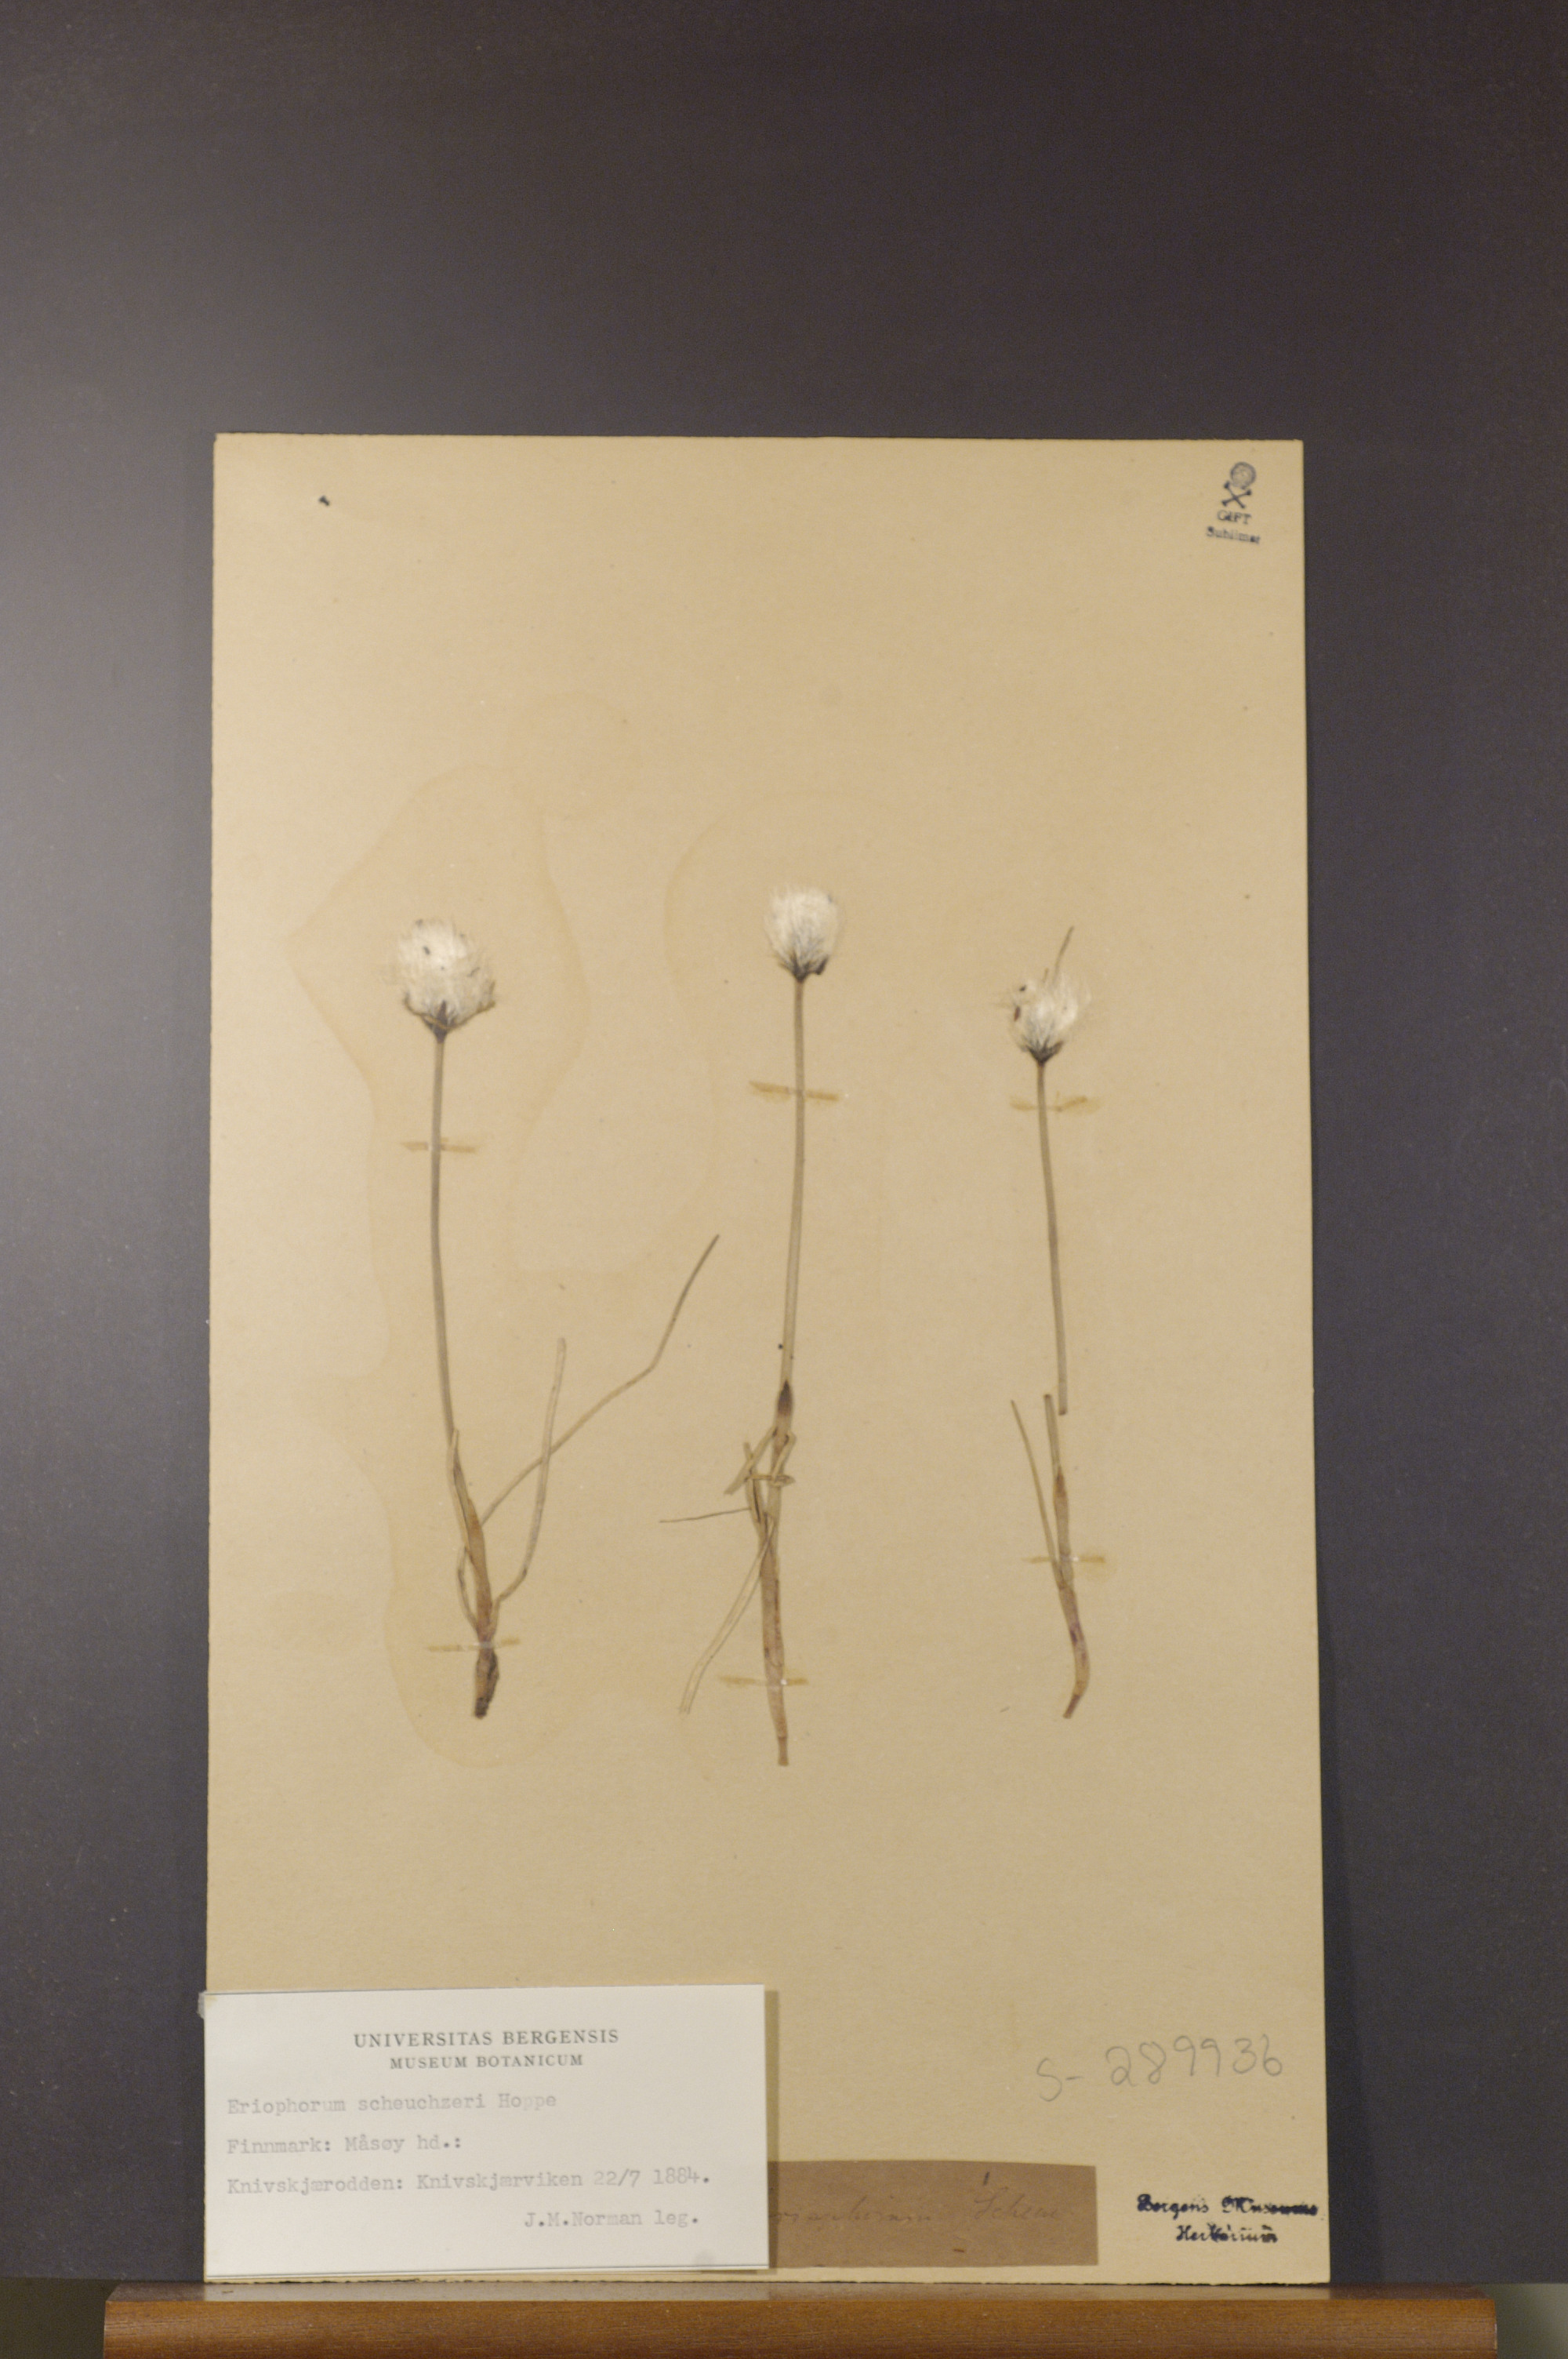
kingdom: Plantae
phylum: Tracheophyta
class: Liliopsida
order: Poales
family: Cyperaceae
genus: Eriophorum
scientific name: Eriophorum scheuchzeri
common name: Scheuchzer's cottongrass
